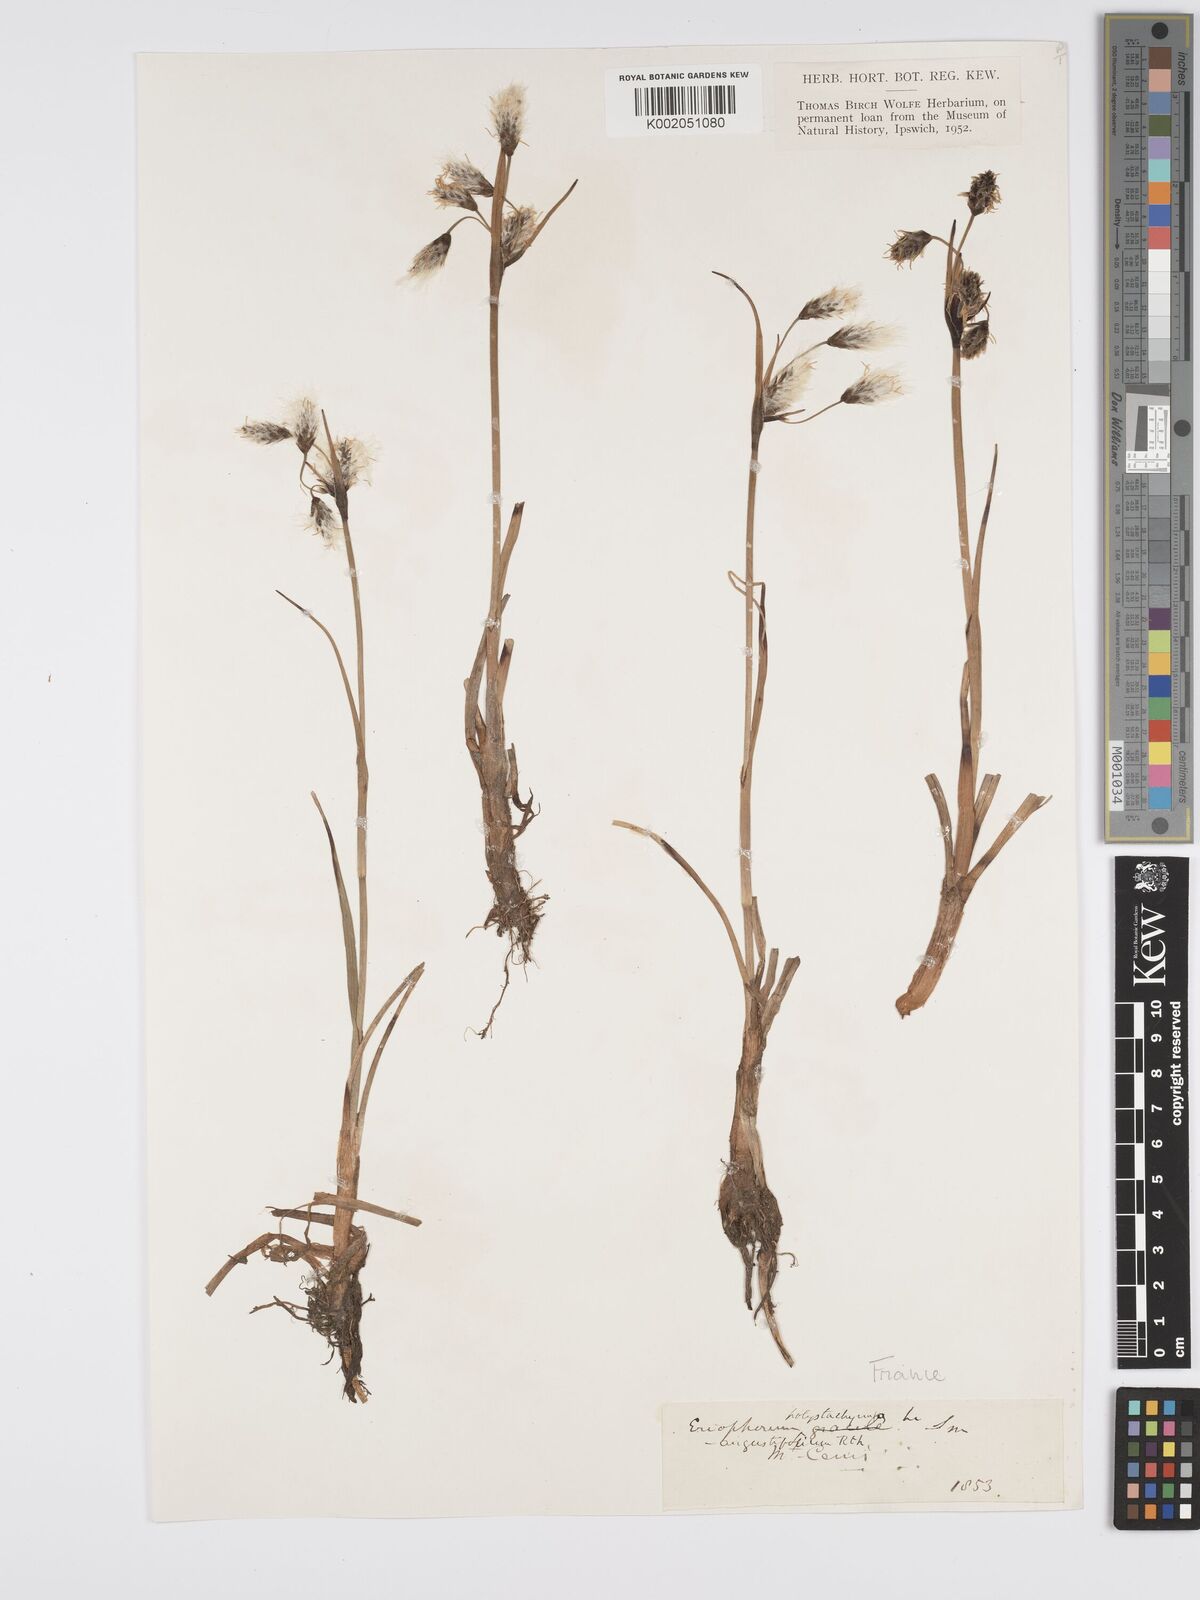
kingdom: Plantae
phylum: Tracheophyta
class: Liliopsida
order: Poales
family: Cyperaceae
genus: Eriophorum
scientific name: Eriophorum angustifolium
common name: Common cottongrass
